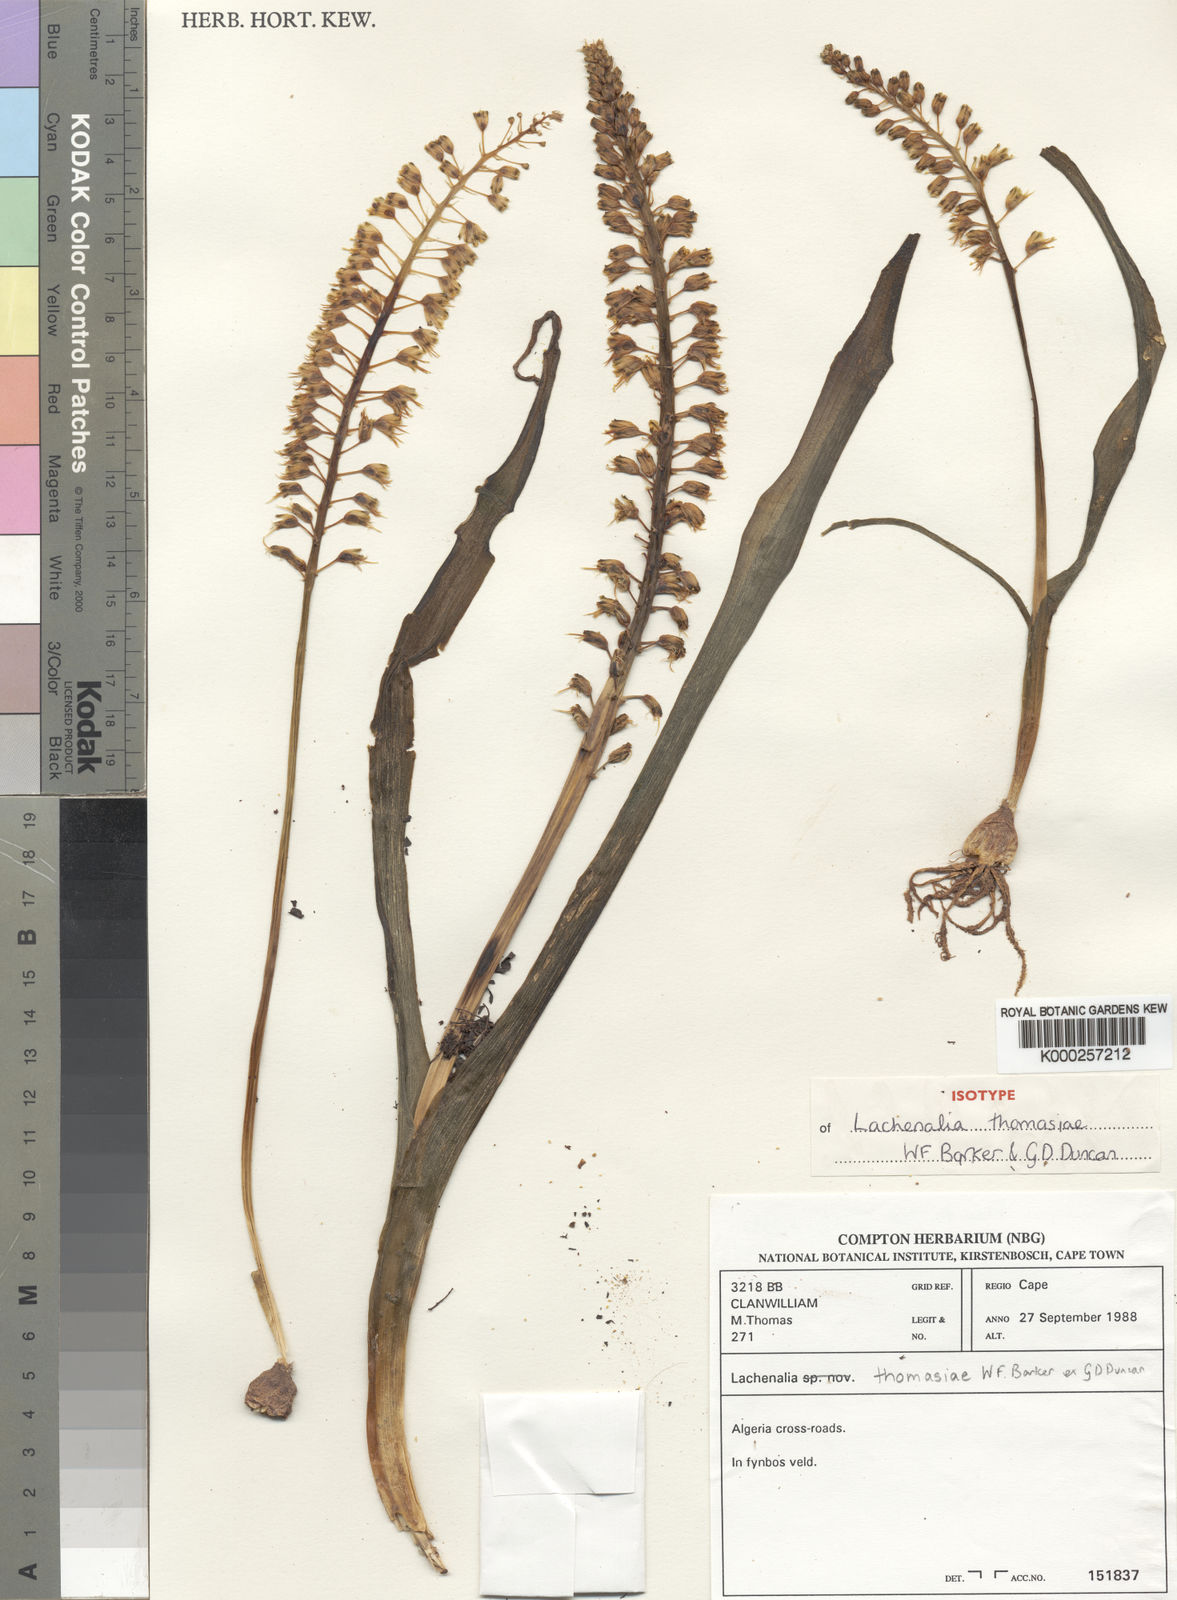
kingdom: Plantae
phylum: Tracheophyta
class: Liliopsida
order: Asparagales
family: Asparagaceae
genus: Lachenalia
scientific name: Lachenalia thomasiae
